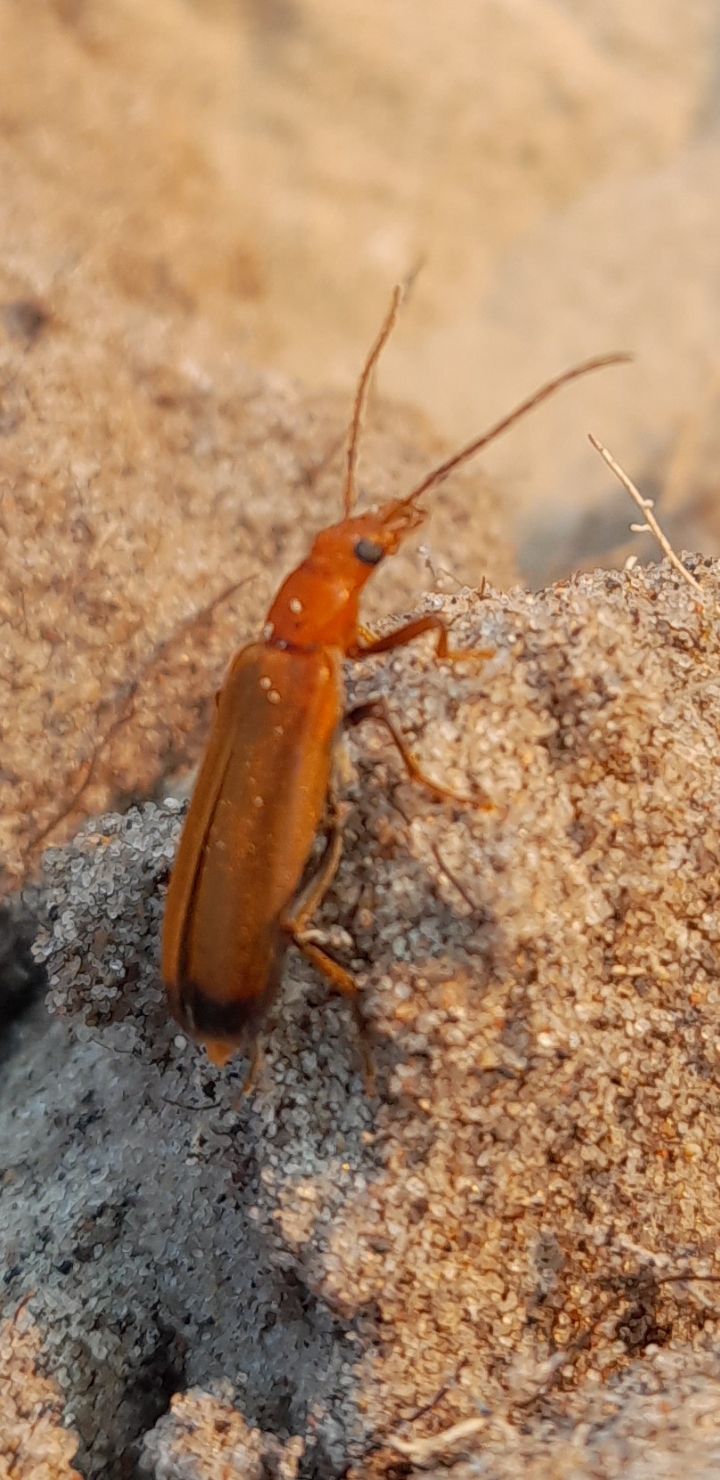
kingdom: Animalia
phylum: Arthropoda
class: Insecta
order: Coleoptera
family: Cantharidae
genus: Rhagonycha
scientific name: Rhagonycha fulva
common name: Præstebille
